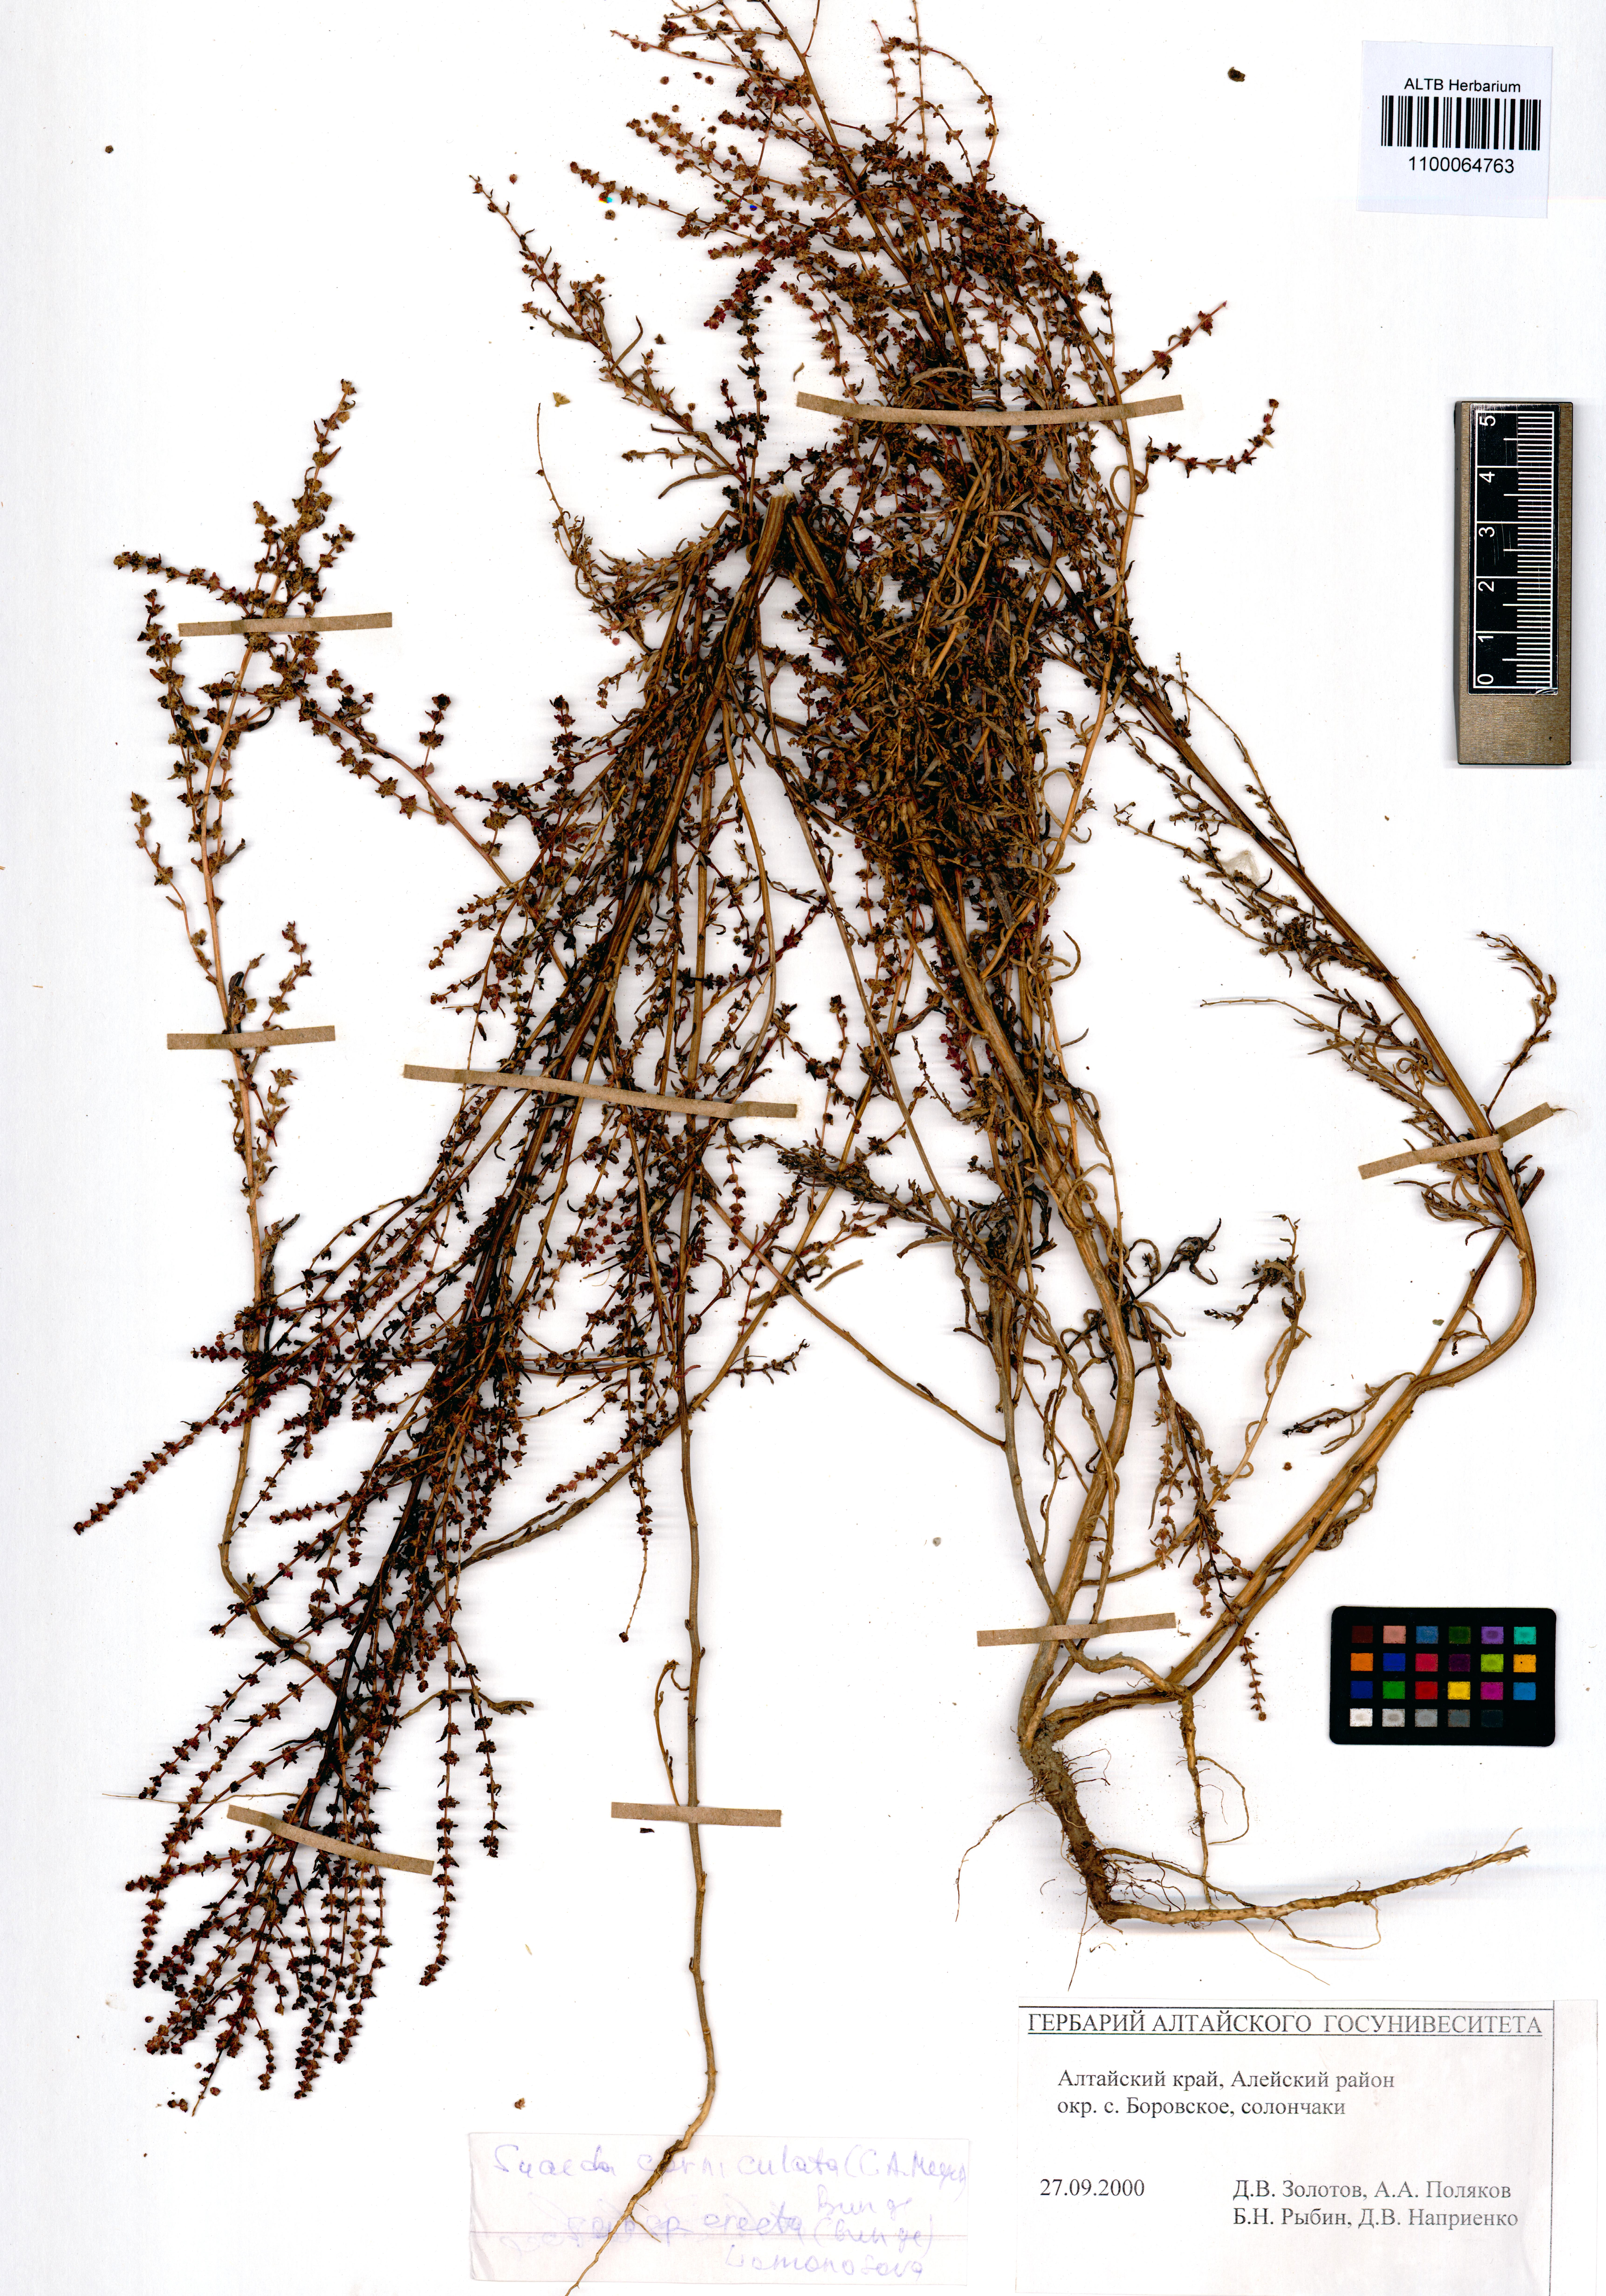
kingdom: Plantae
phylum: Tracheophyta
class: Magnoliopsida
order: Caryophyllales
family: Amaranthaceae
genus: Suaeda
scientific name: Suaeda corniculata
